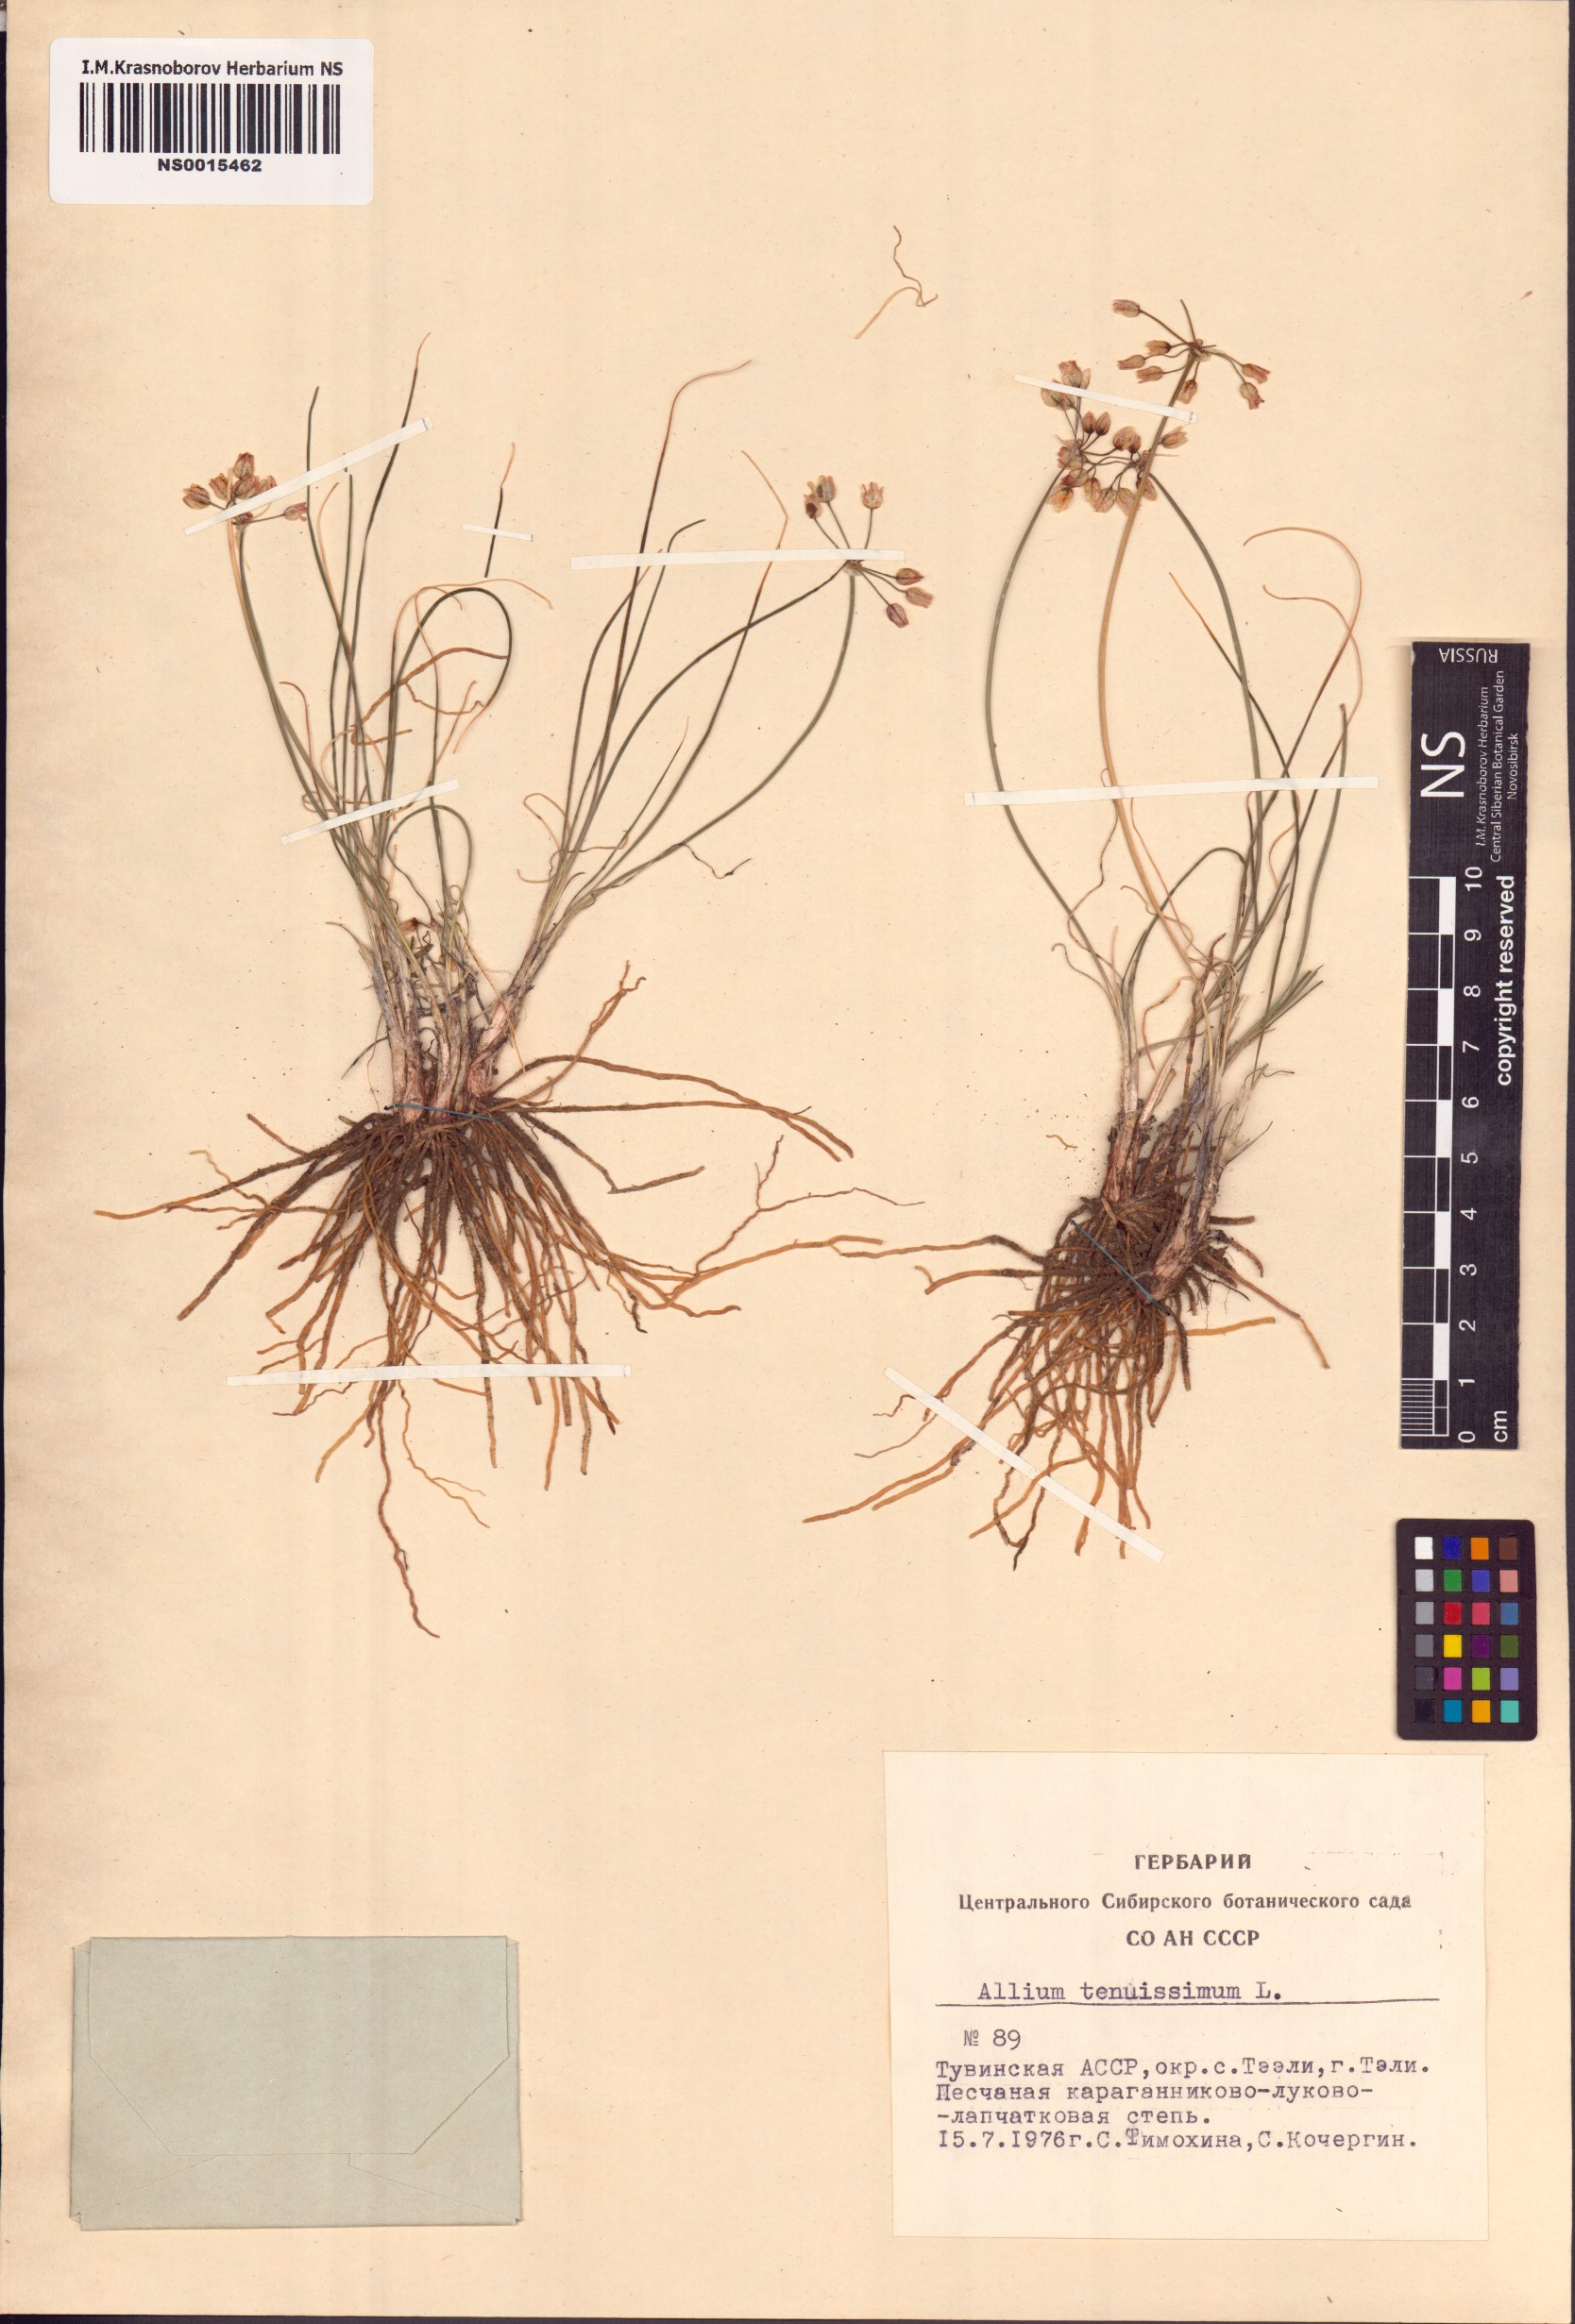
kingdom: Plantae
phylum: Tracheophyta
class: Liliopsida
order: Asparagales
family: Amaryllidaceae
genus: Allium
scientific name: Allium tenuissimum
